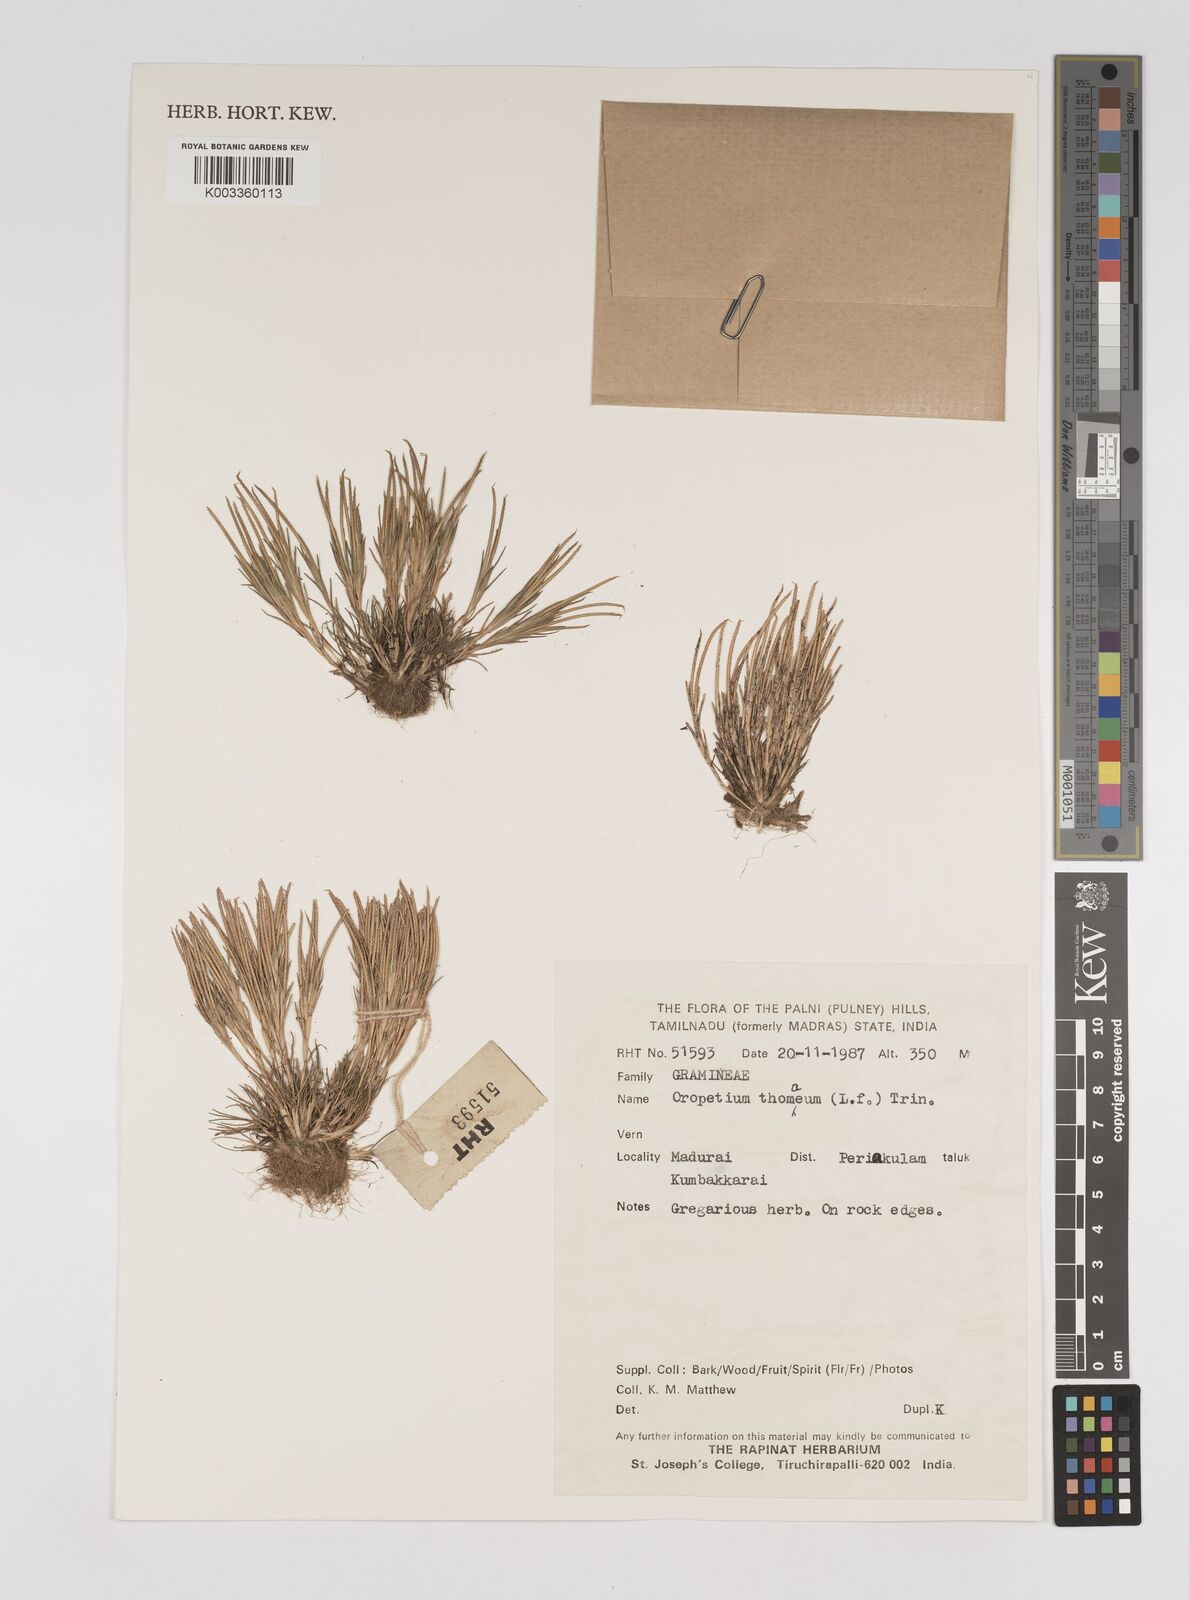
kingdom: Plantae
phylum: Tracheophyta
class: Liliopsida
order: Poales
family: Poaceae
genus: Oropetium
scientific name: Oropetium thomaeum
